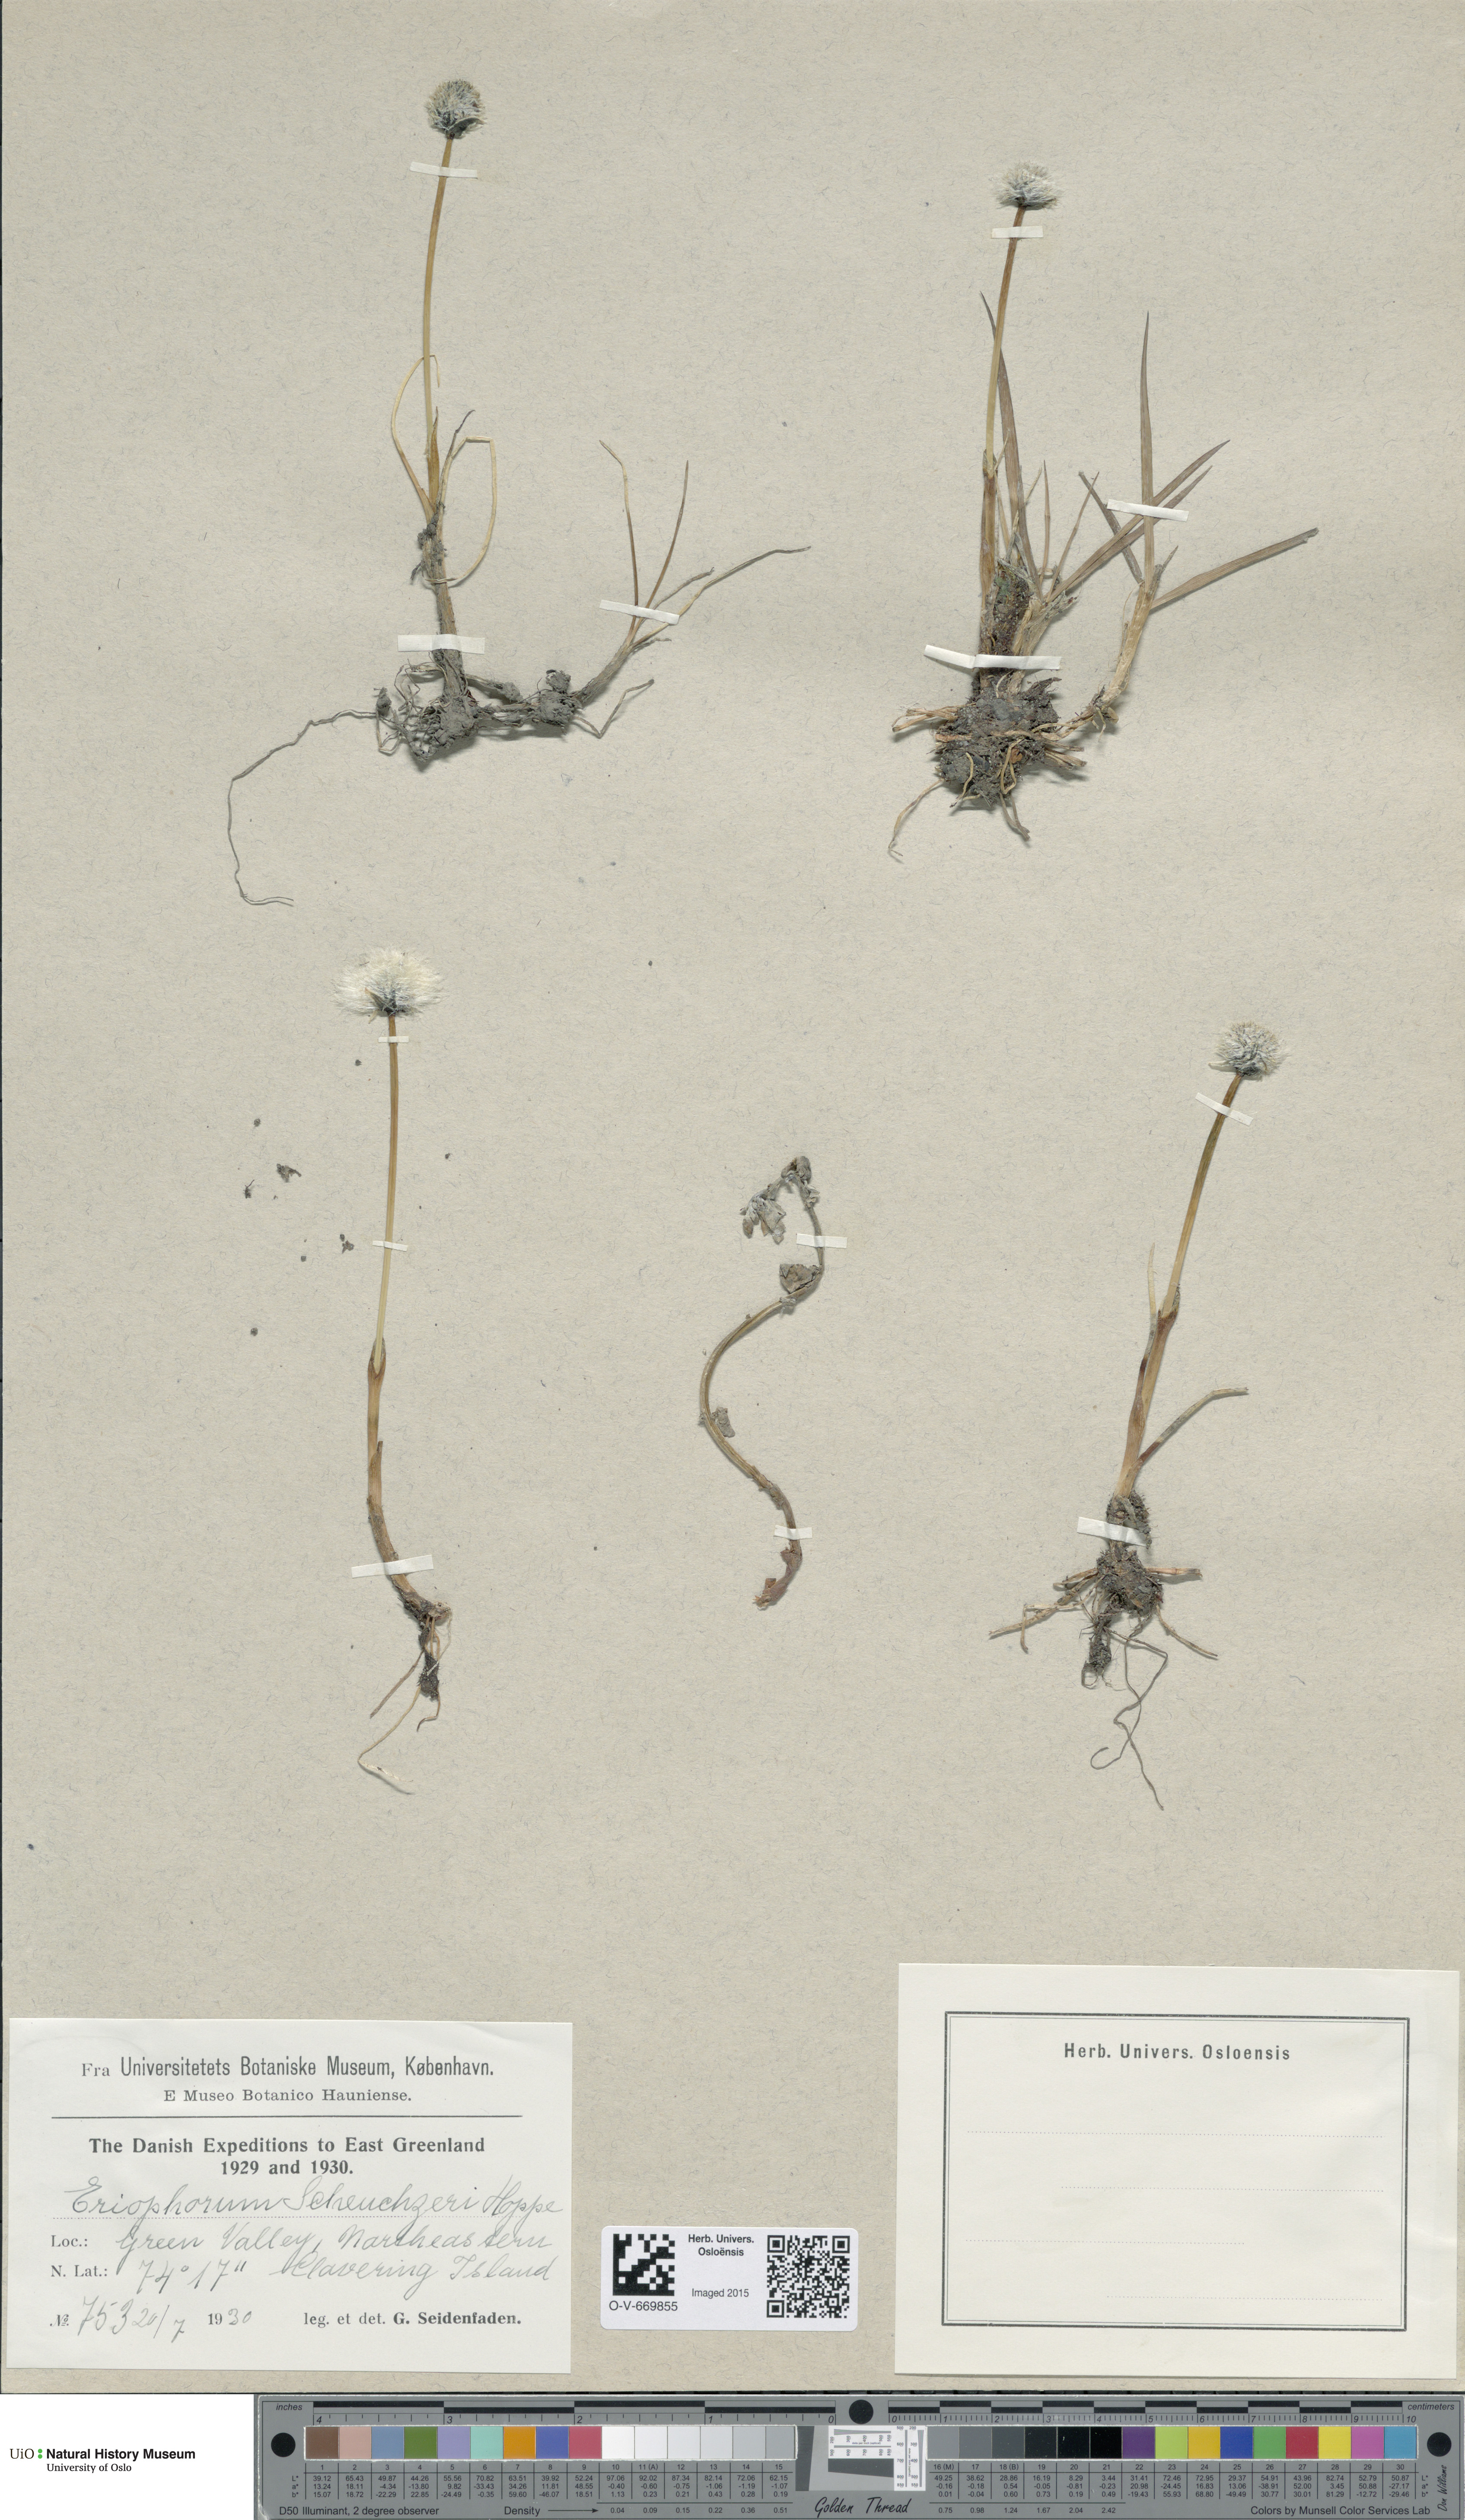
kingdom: Plantae
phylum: Tracheophyta
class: Liliopsida
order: Poales
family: Cyperaceae
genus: Eriophorum
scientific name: Eriophorum scheuchzeri
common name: Scheuchzer's cottongrass
